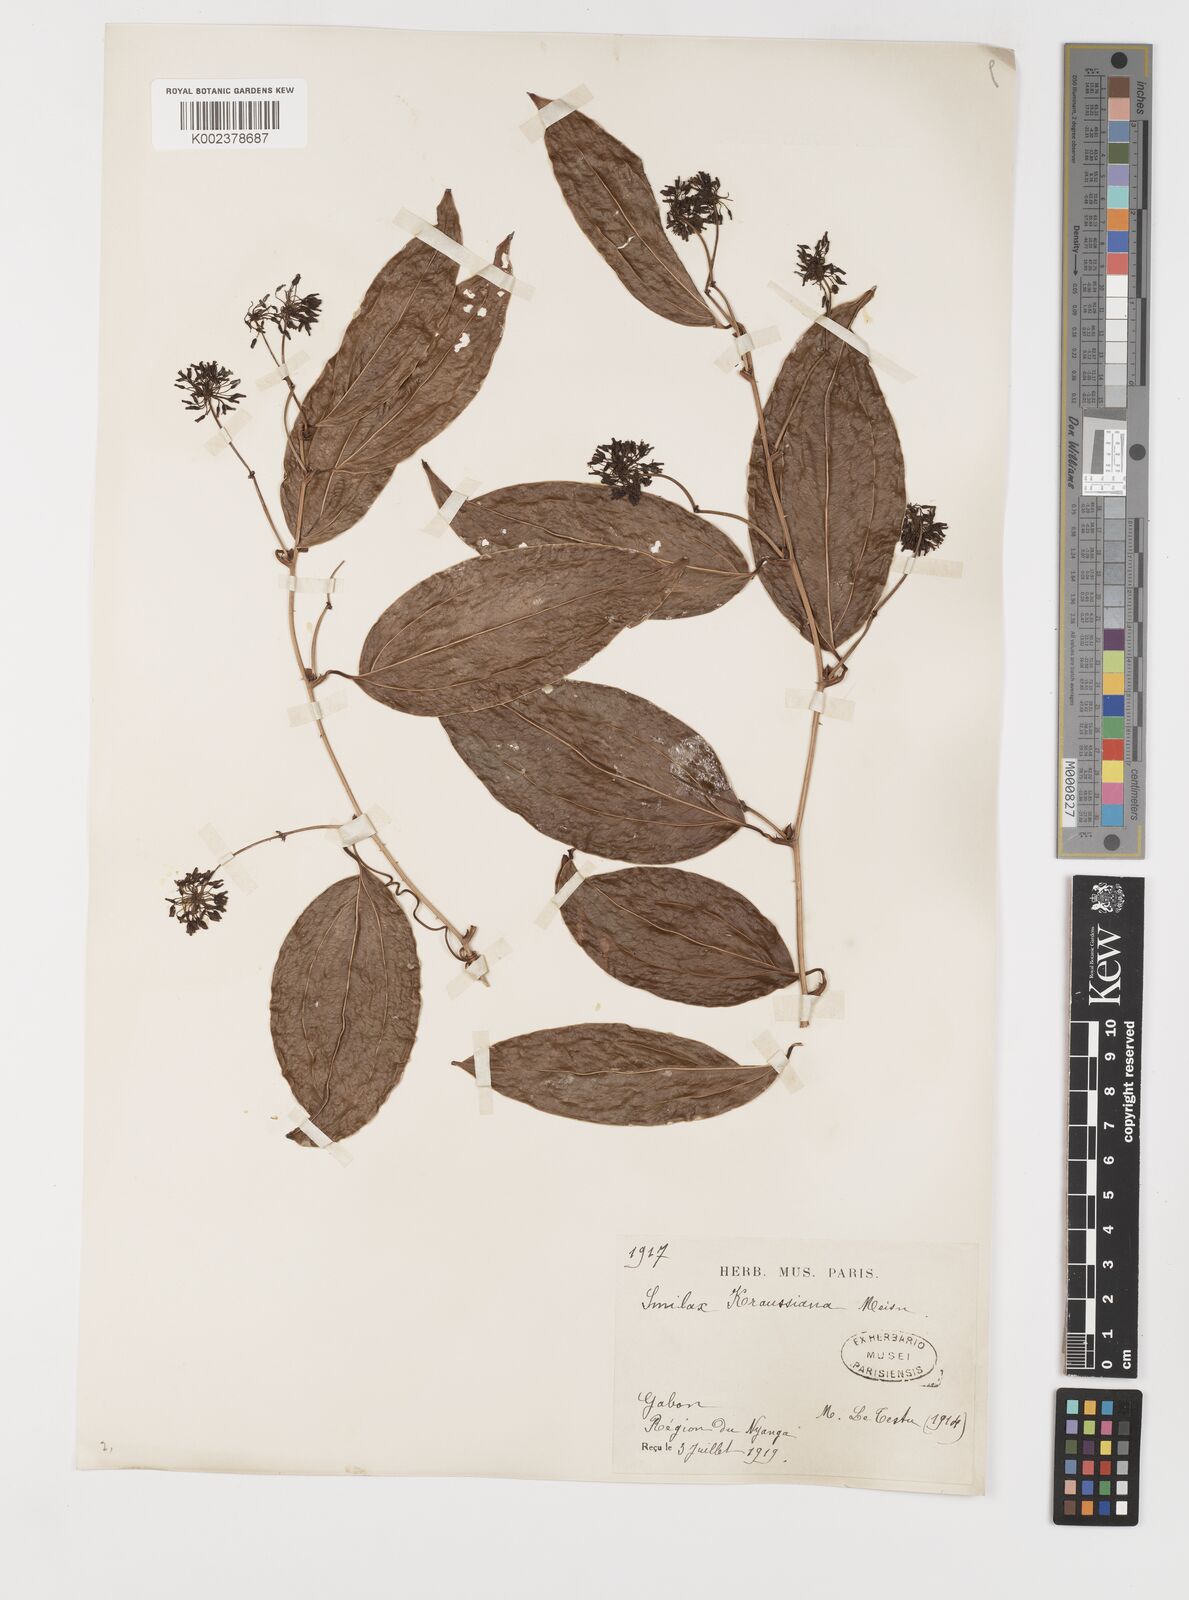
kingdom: Plantae
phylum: Tracheophyta
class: Liliopsida
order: Liliales
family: Smilacaceae
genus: Smilax
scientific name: Smilax anceps
